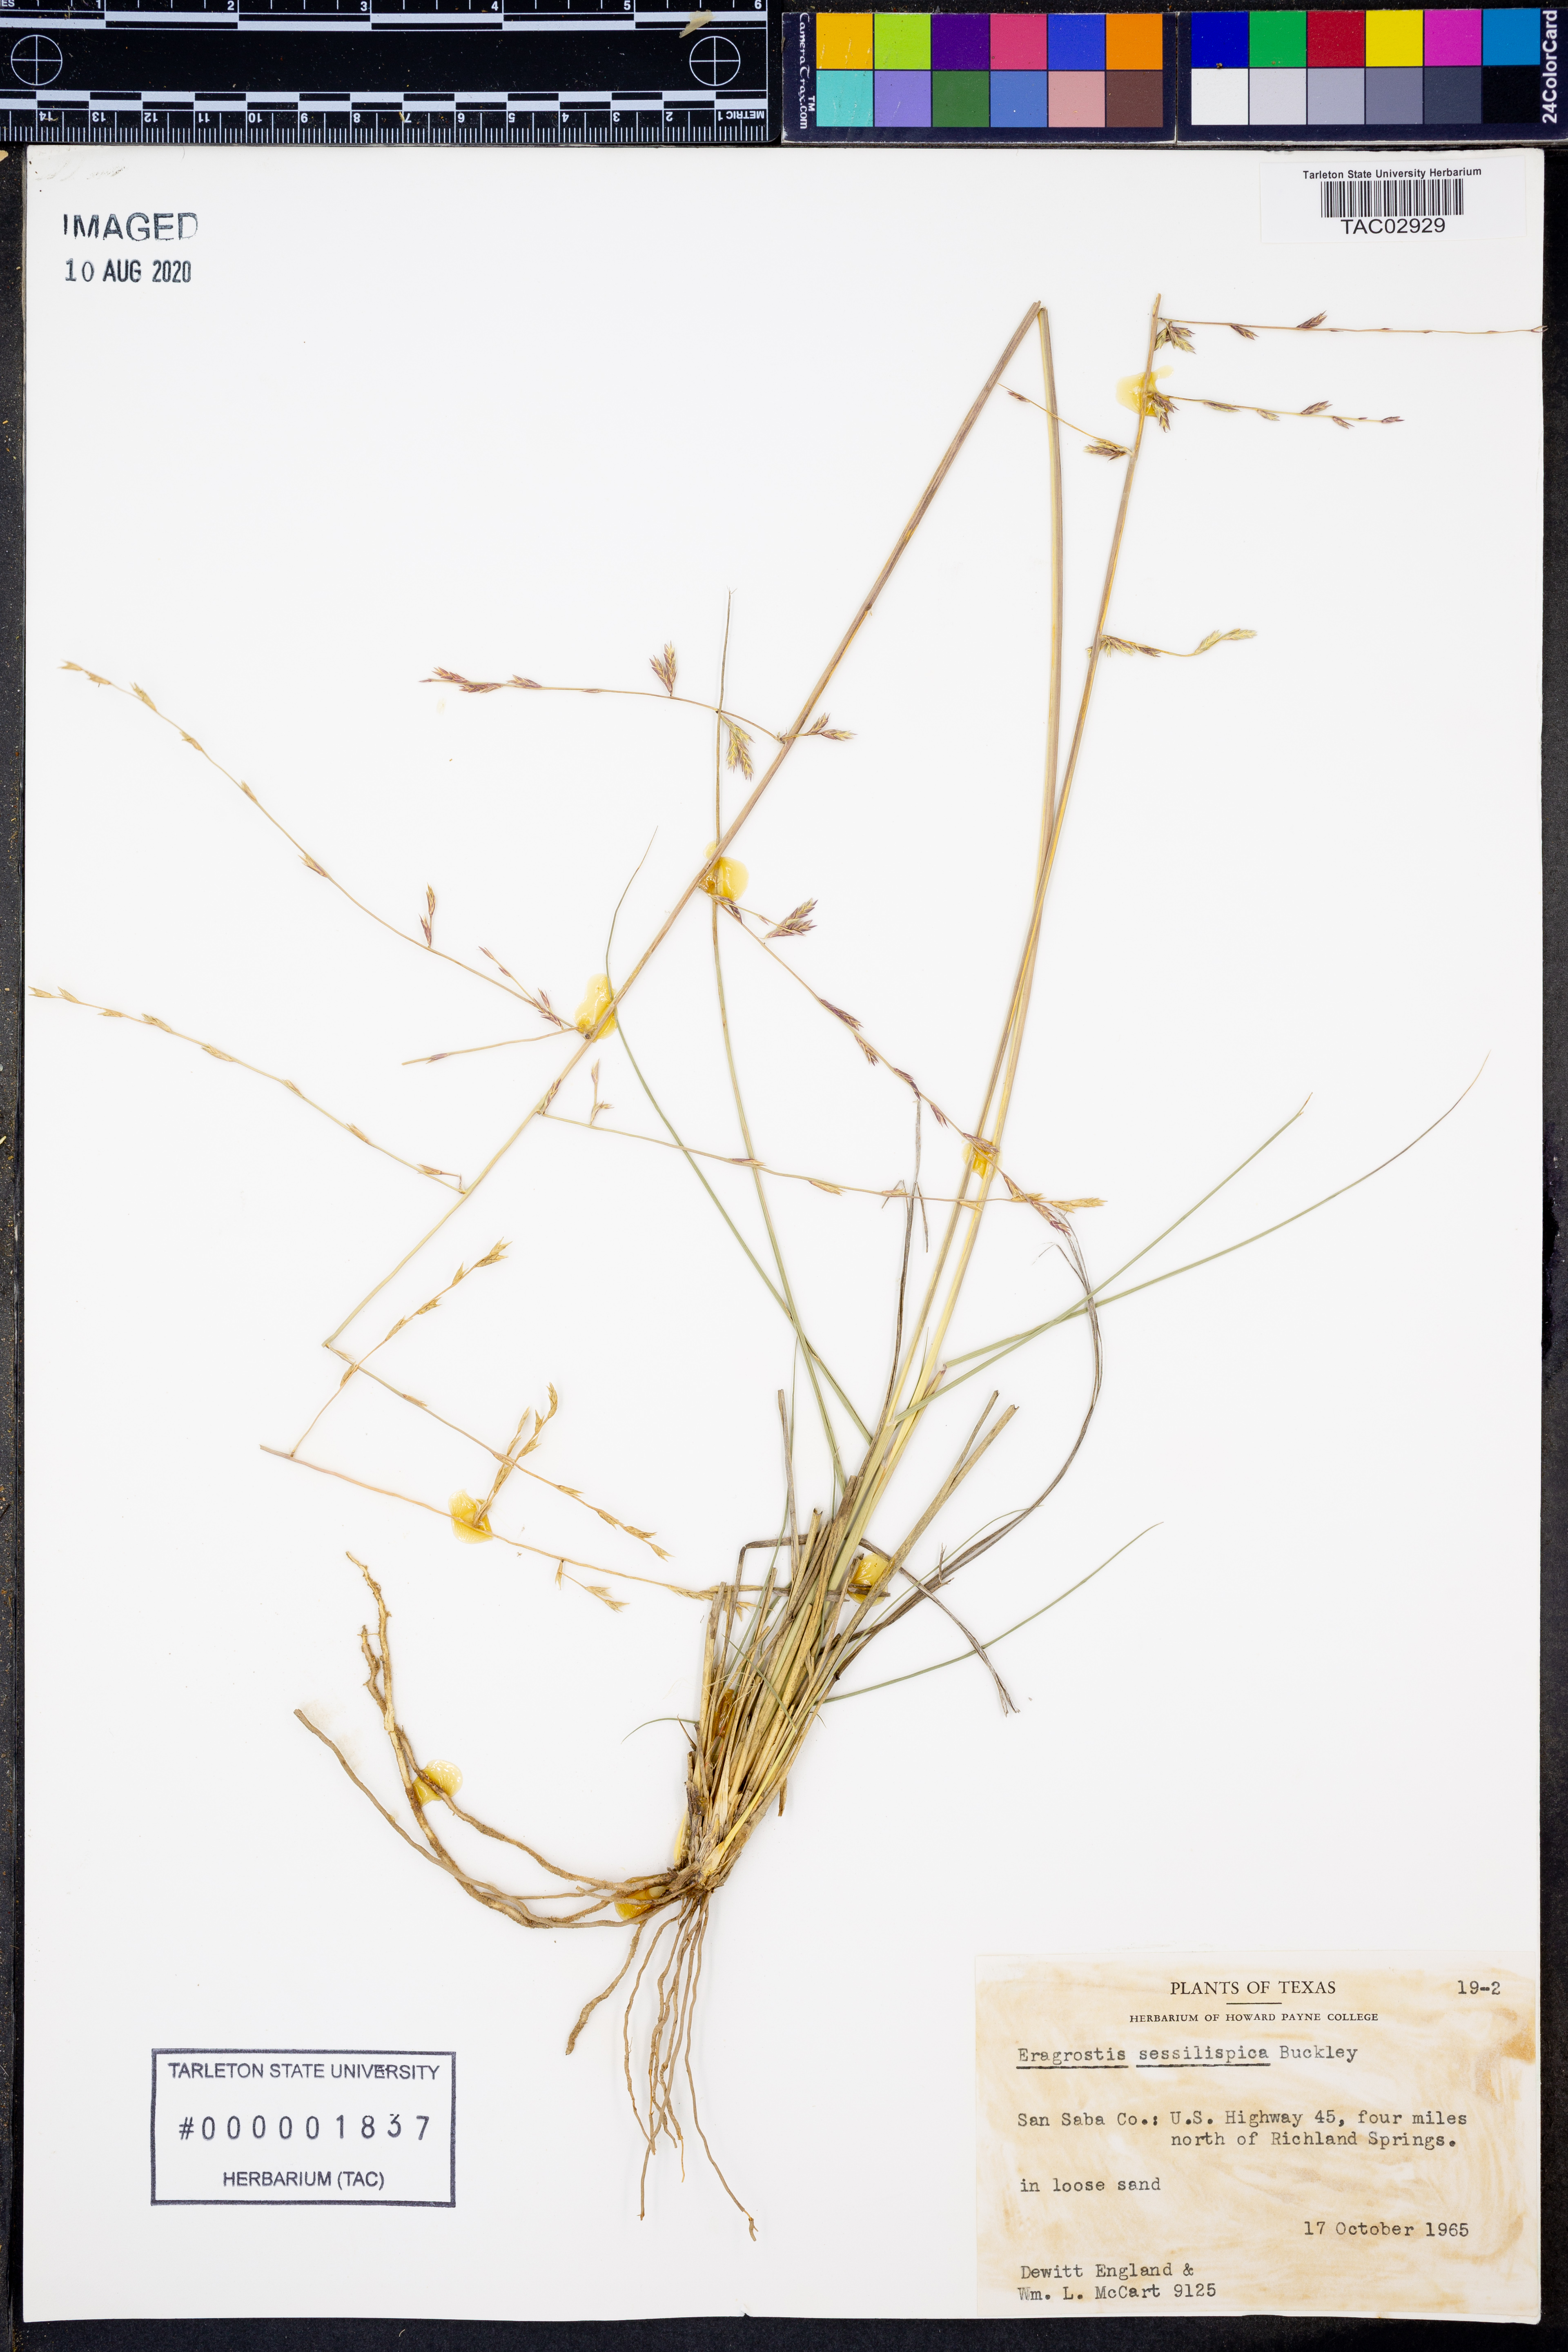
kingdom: Plantae
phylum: Tracheophyta
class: Liliopsida
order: Poales
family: Poaceae
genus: Eragrostis
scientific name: Eragrostis sessilispica
